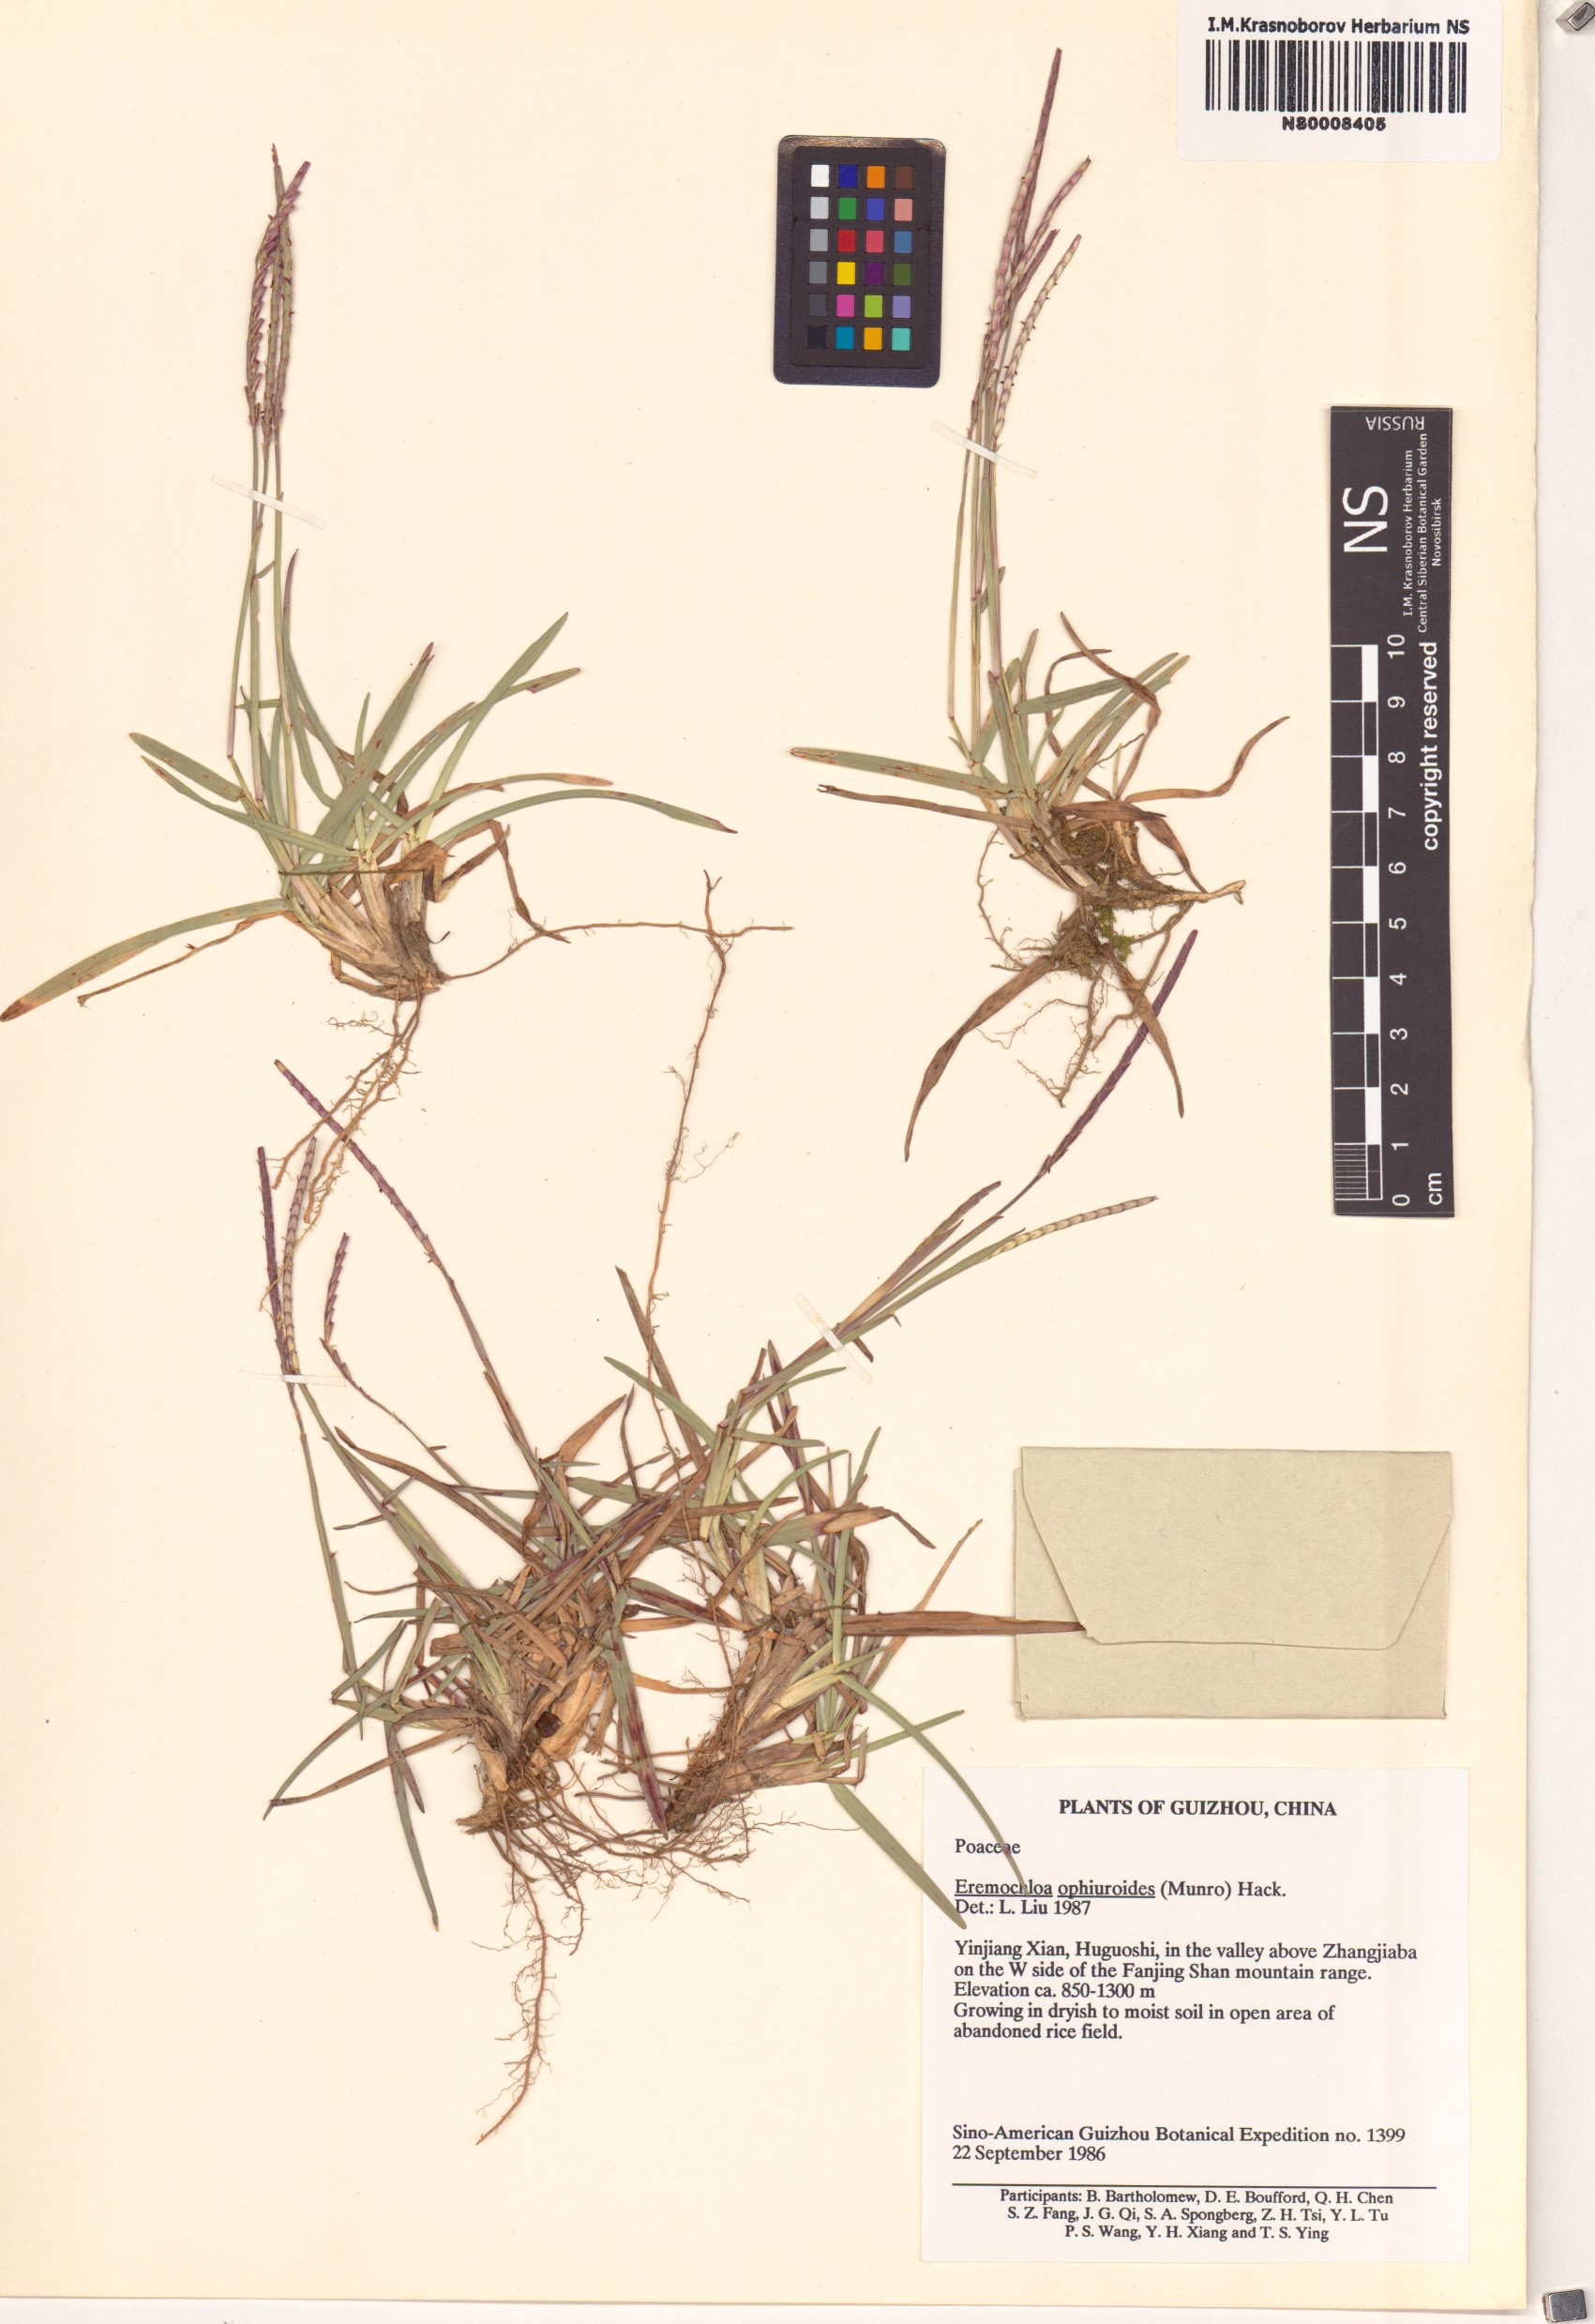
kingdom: Plantae
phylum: Tracheophyta
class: Liliopsida
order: Poales
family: Poaceae
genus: Eremochloa
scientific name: Eremochloa ophiuroides
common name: Centipede grass
